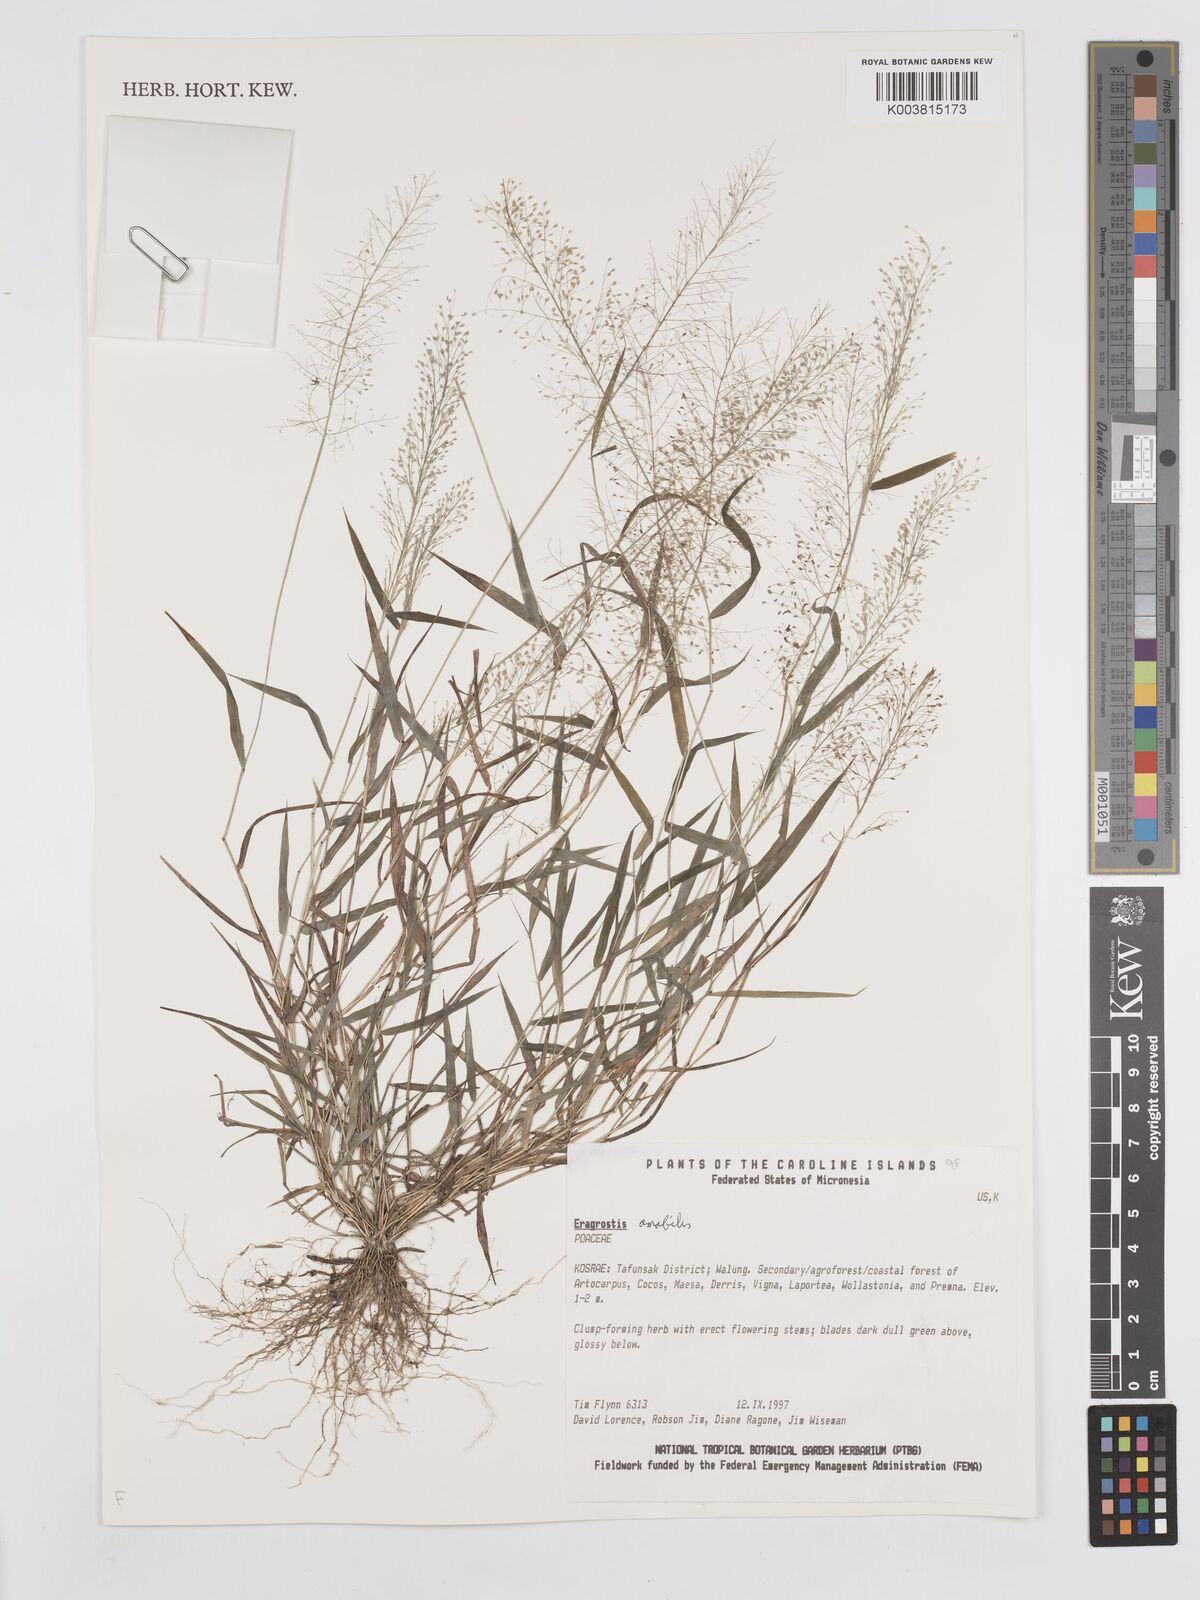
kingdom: Plantae
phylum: Tracheophyta
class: Liliopsida
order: Poales
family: Poaceae
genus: Eragrostis
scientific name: Eragrostis tenella
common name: Japanese lovegrass
